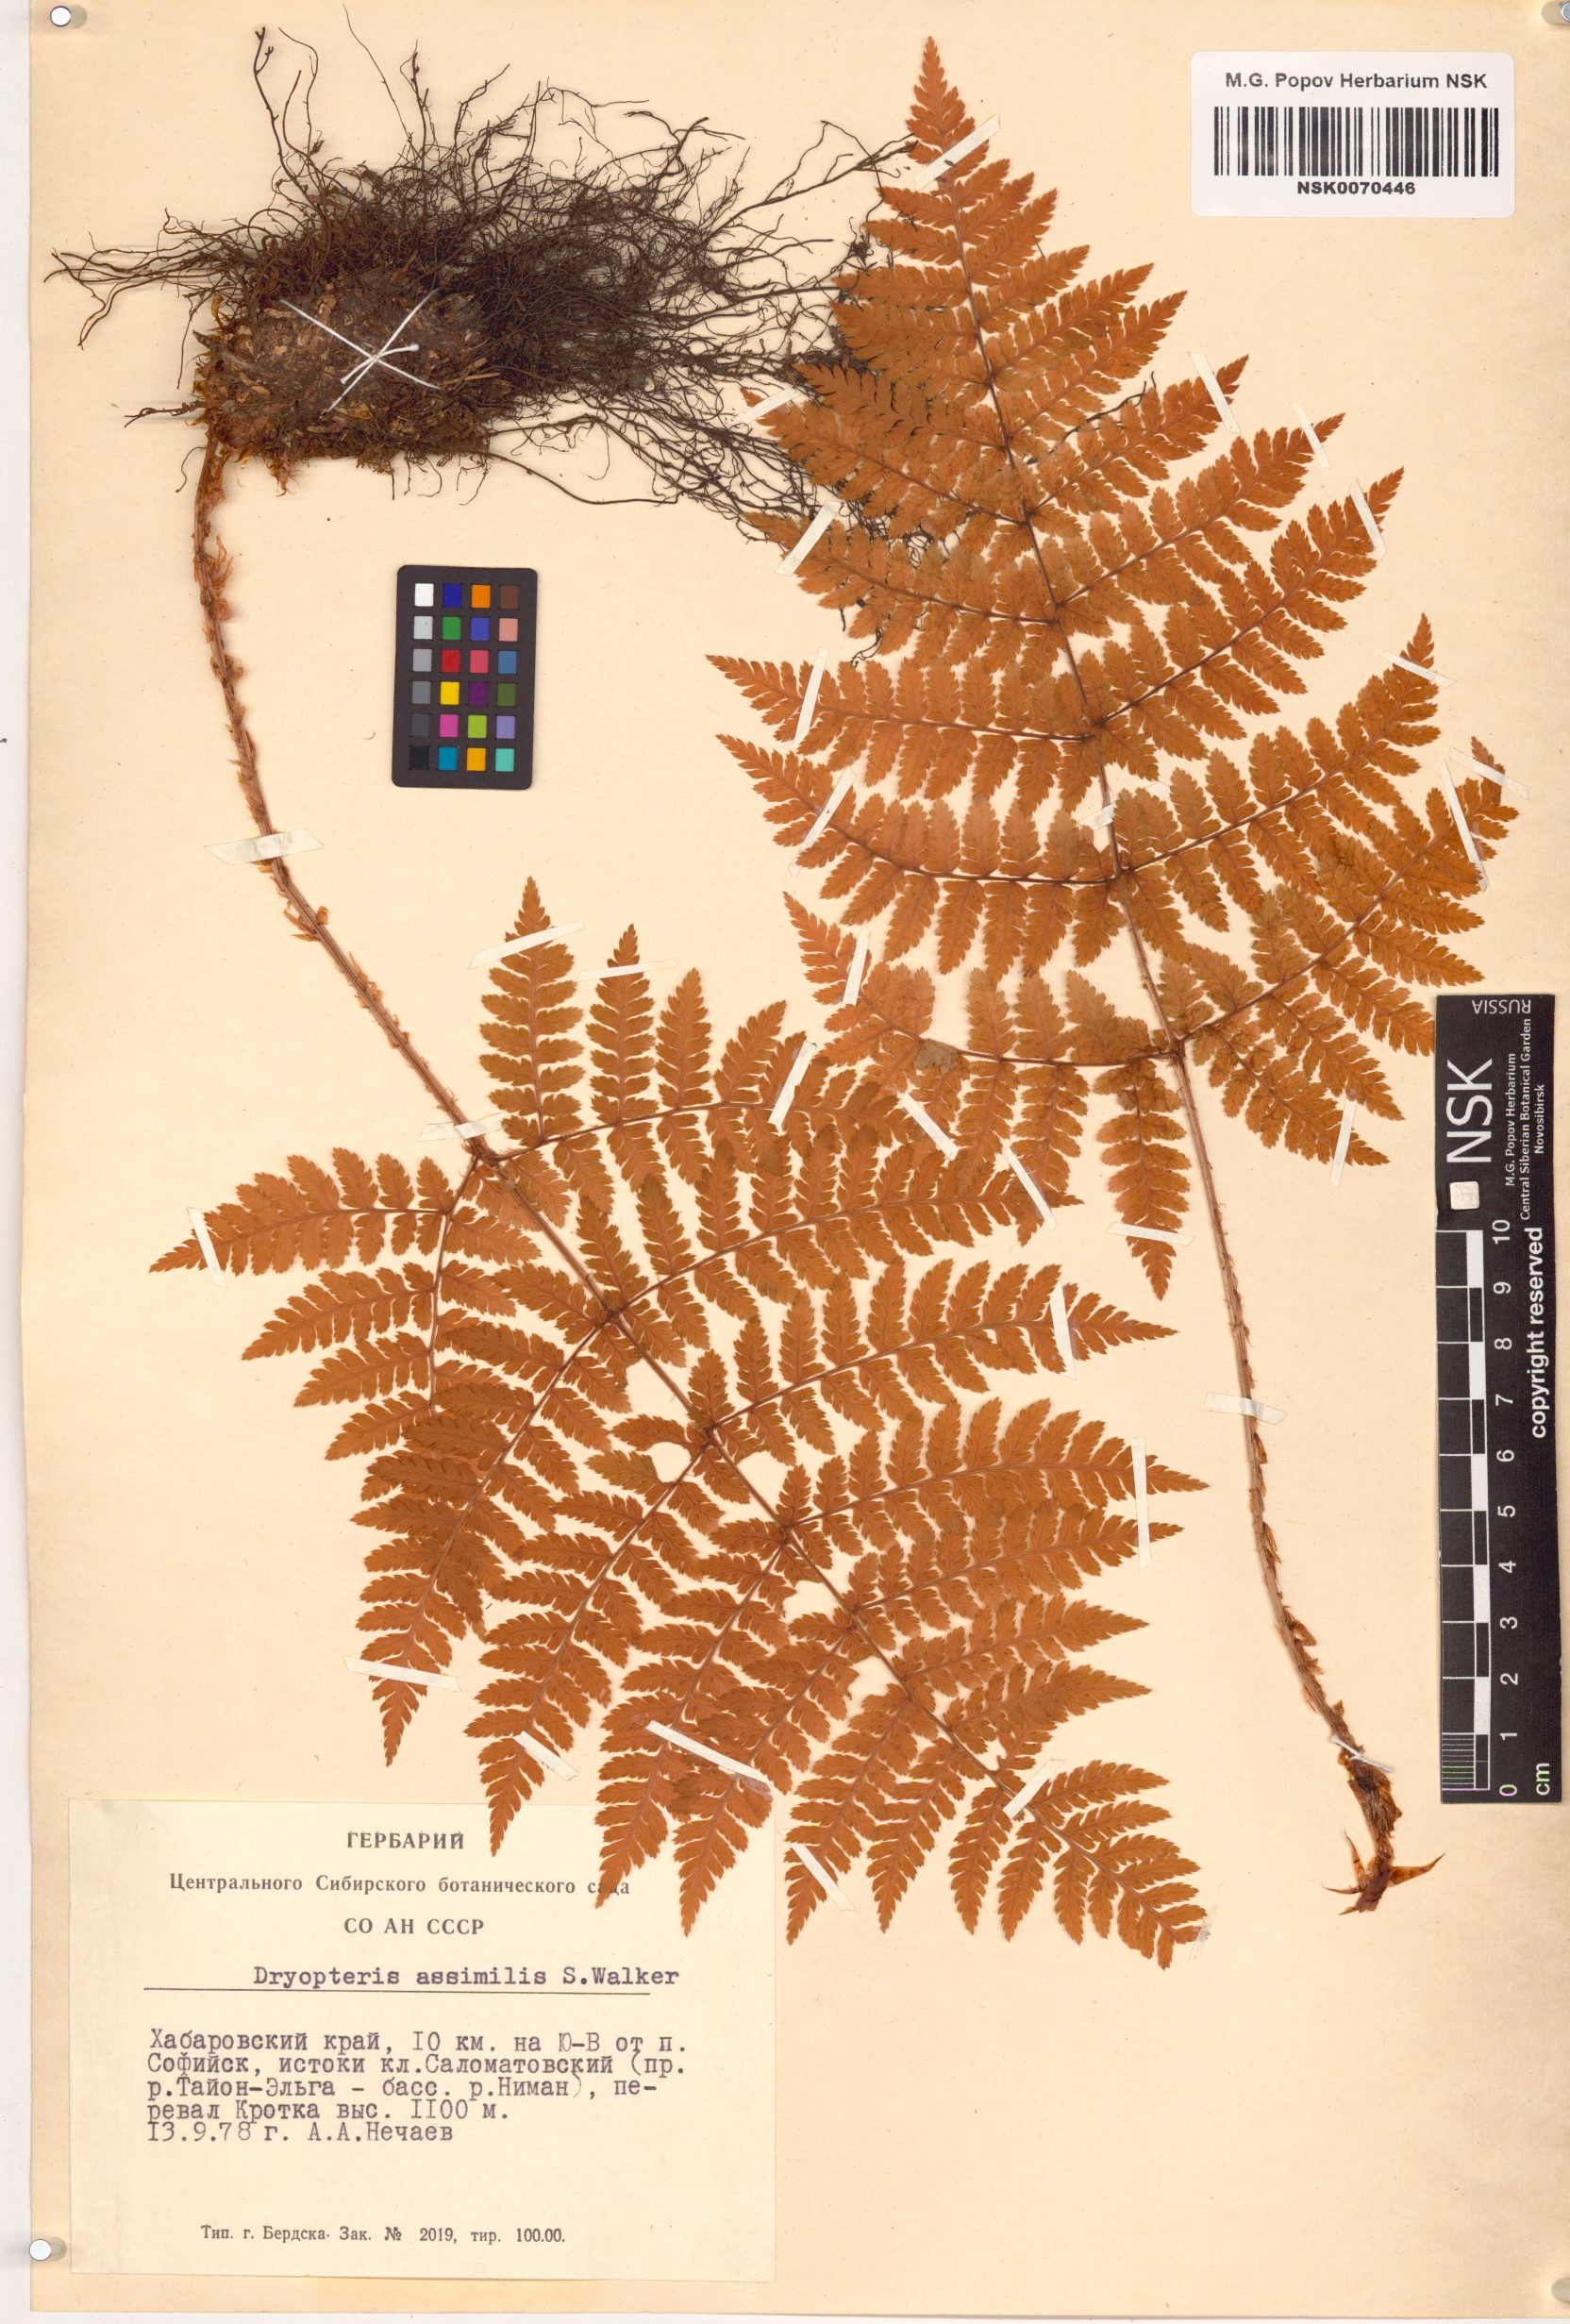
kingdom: Plantae
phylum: Tracheophyta
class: Polypodiopsida
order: Polypodiales
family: Dryopteridaceae
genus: Dryopteris
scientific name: Dryopteris expansa
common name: Northern buckler fern
